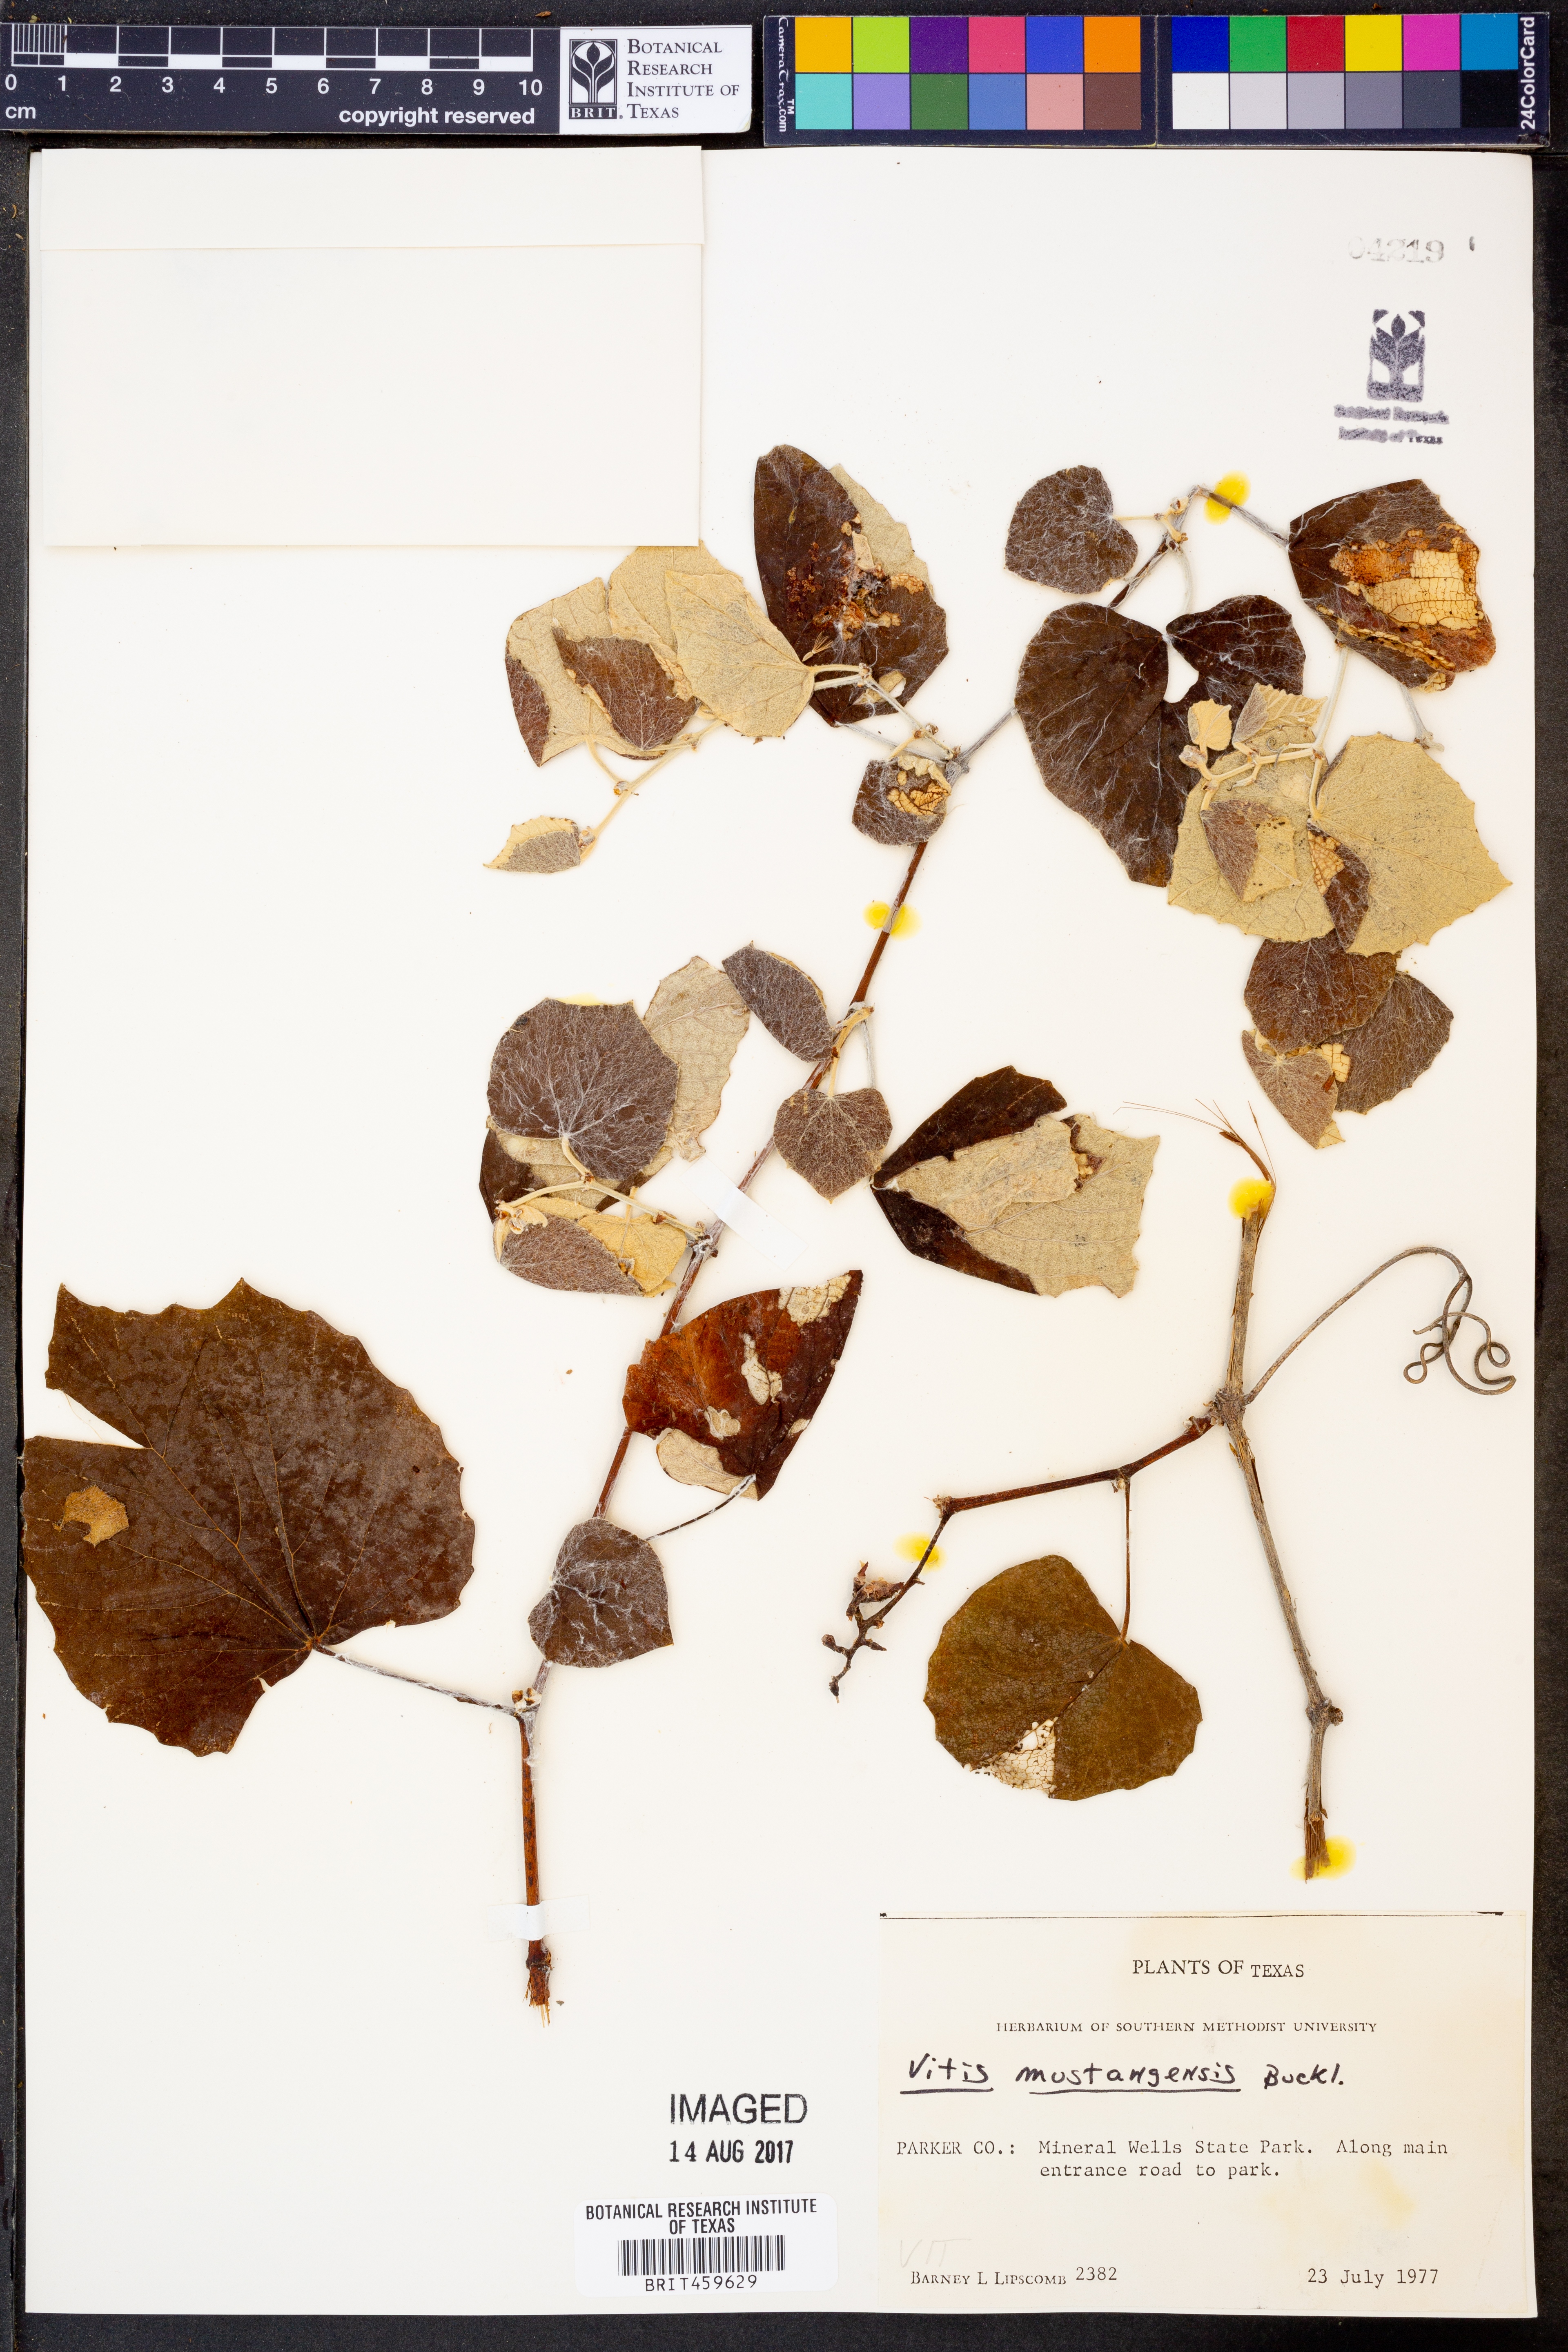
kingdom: Plantae
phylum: Tracheophyta
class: Magnoliopsida
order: Vitales
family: Vitaceae
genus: Vitis
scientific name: Vitis mustangensis
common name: Mustang grape
